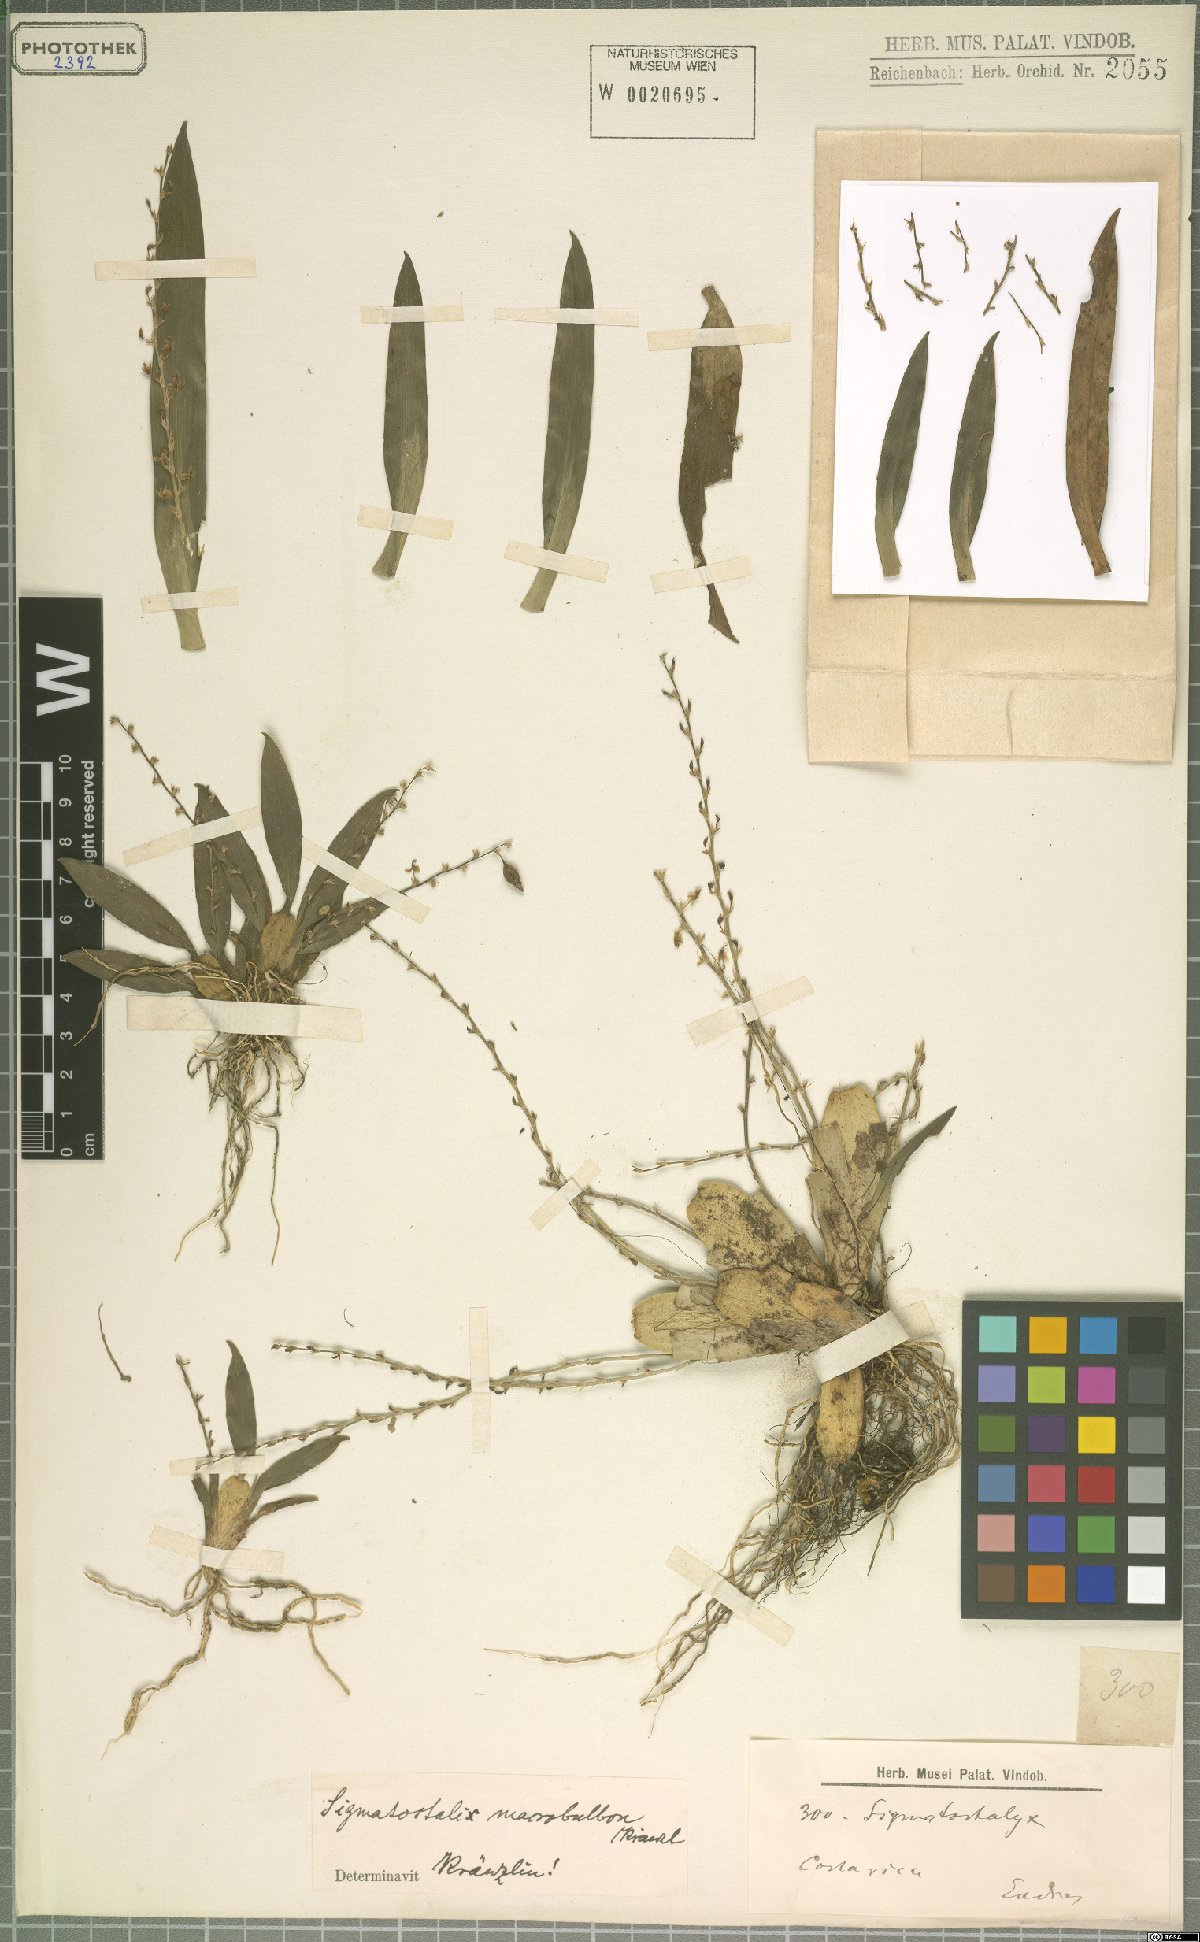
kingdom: Plantae
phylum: Tracheophyta
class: Liliopsida
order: Asparagales
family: Orchidaceae
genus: Oncidium
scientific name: Oncidium macrobulbon
